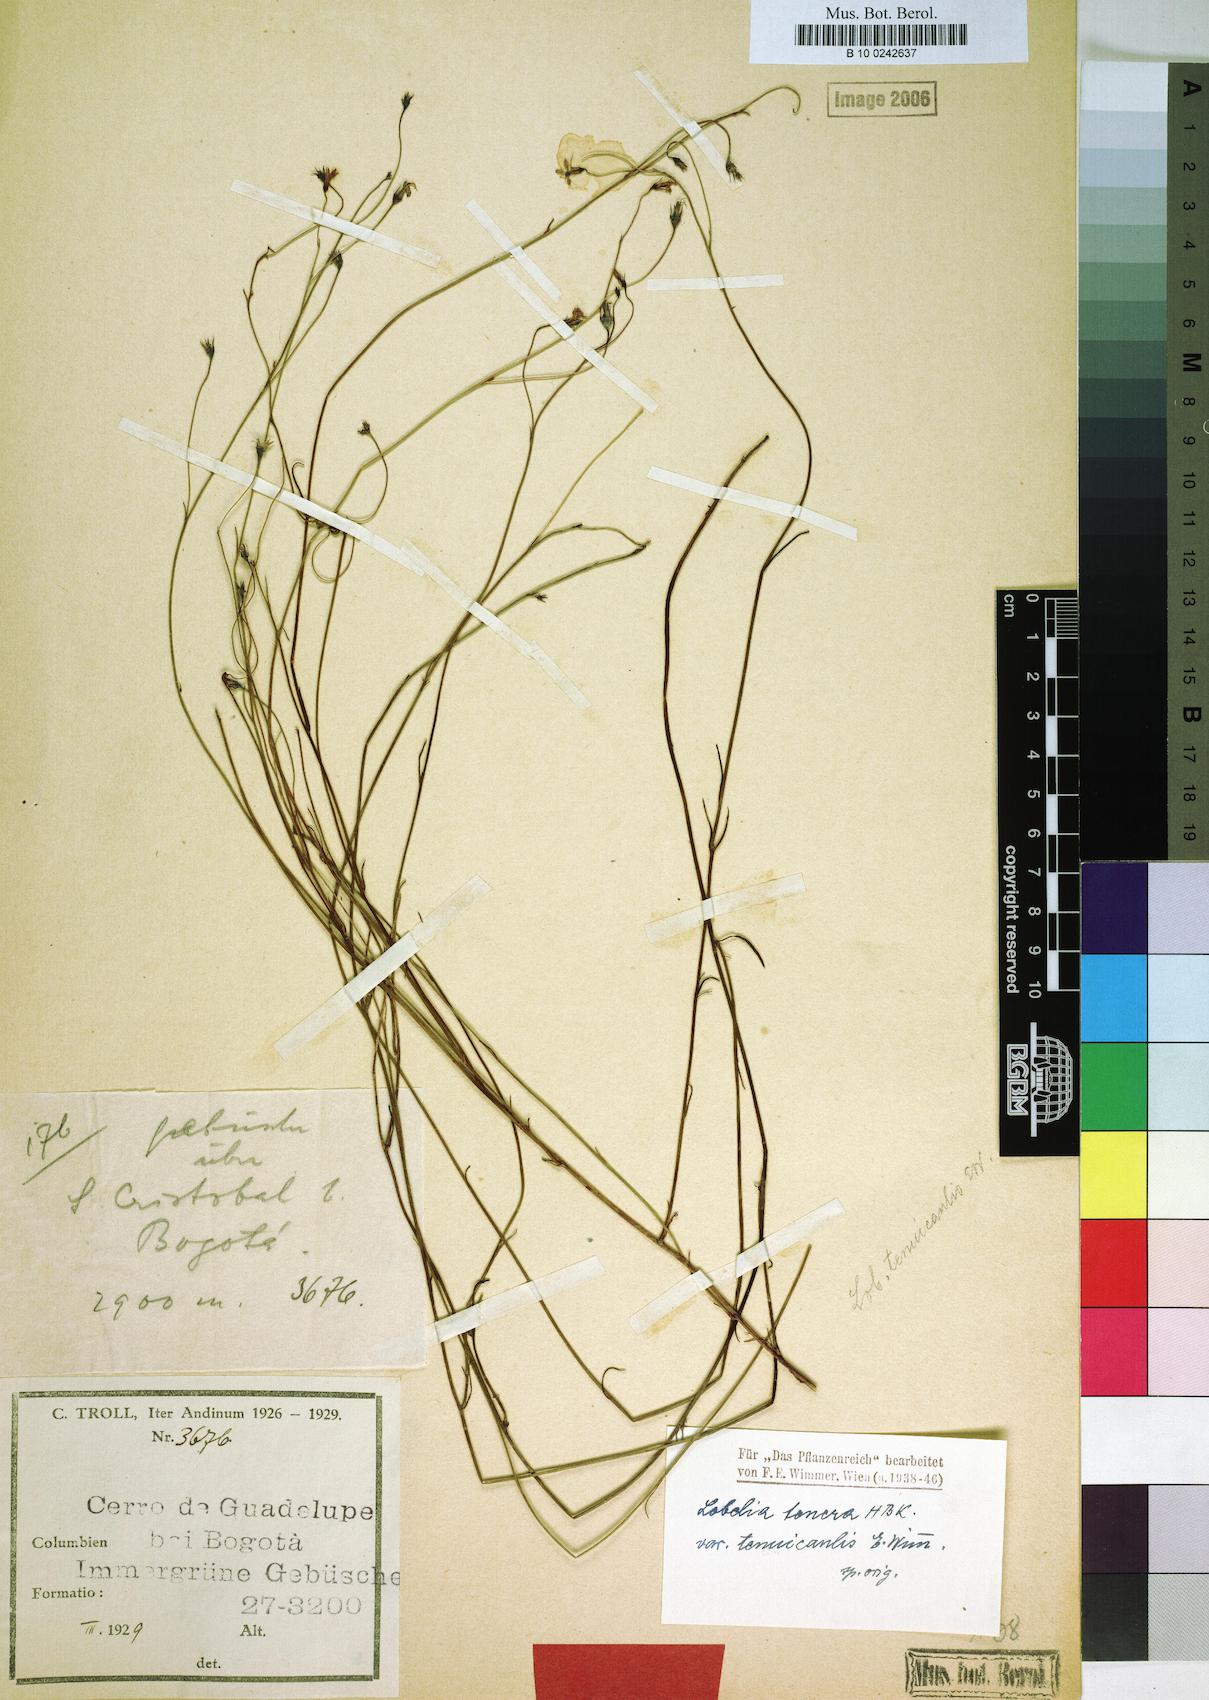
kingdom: Plantae
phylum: Tracheophyta
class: Magnoliopsida
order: Asterales
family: Campanulaceae
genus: Lobelia
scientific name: Lobelia tenera
